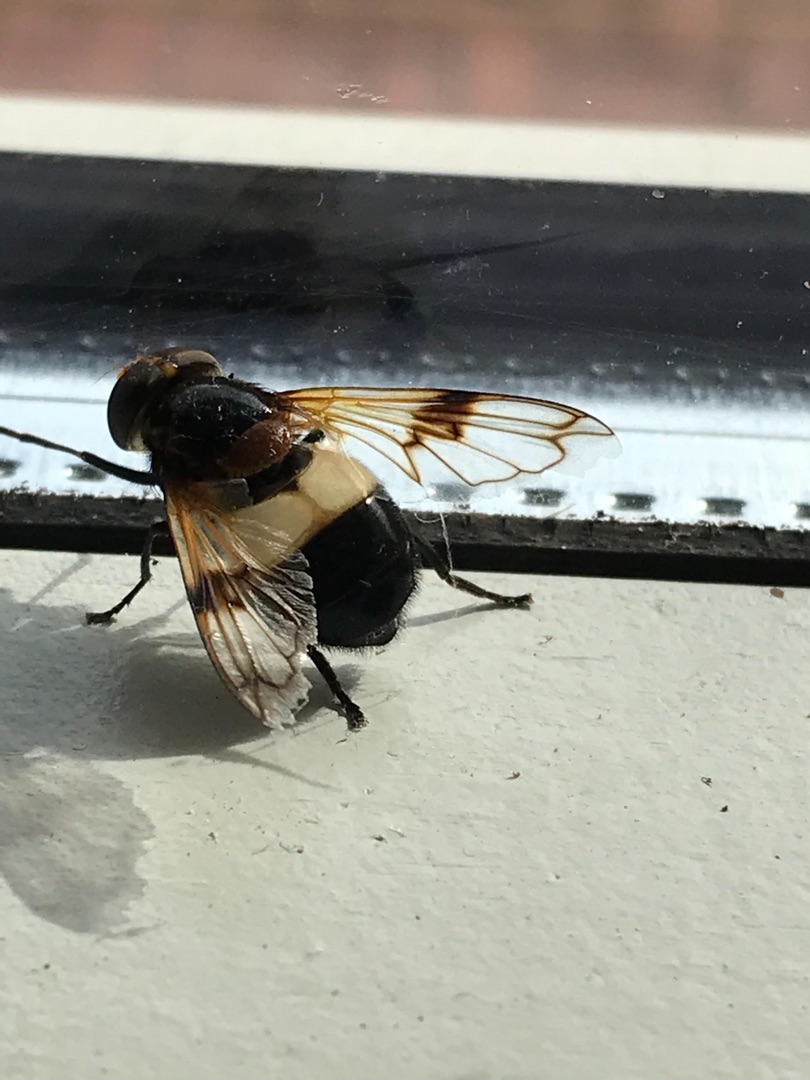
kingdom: Animalia
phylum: Arthropoda
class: Insecta
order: Diptera
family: Syrphidae
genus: Volucella
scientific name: Volucella pellucens
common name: Hvidbåndet humlesvirreflue
